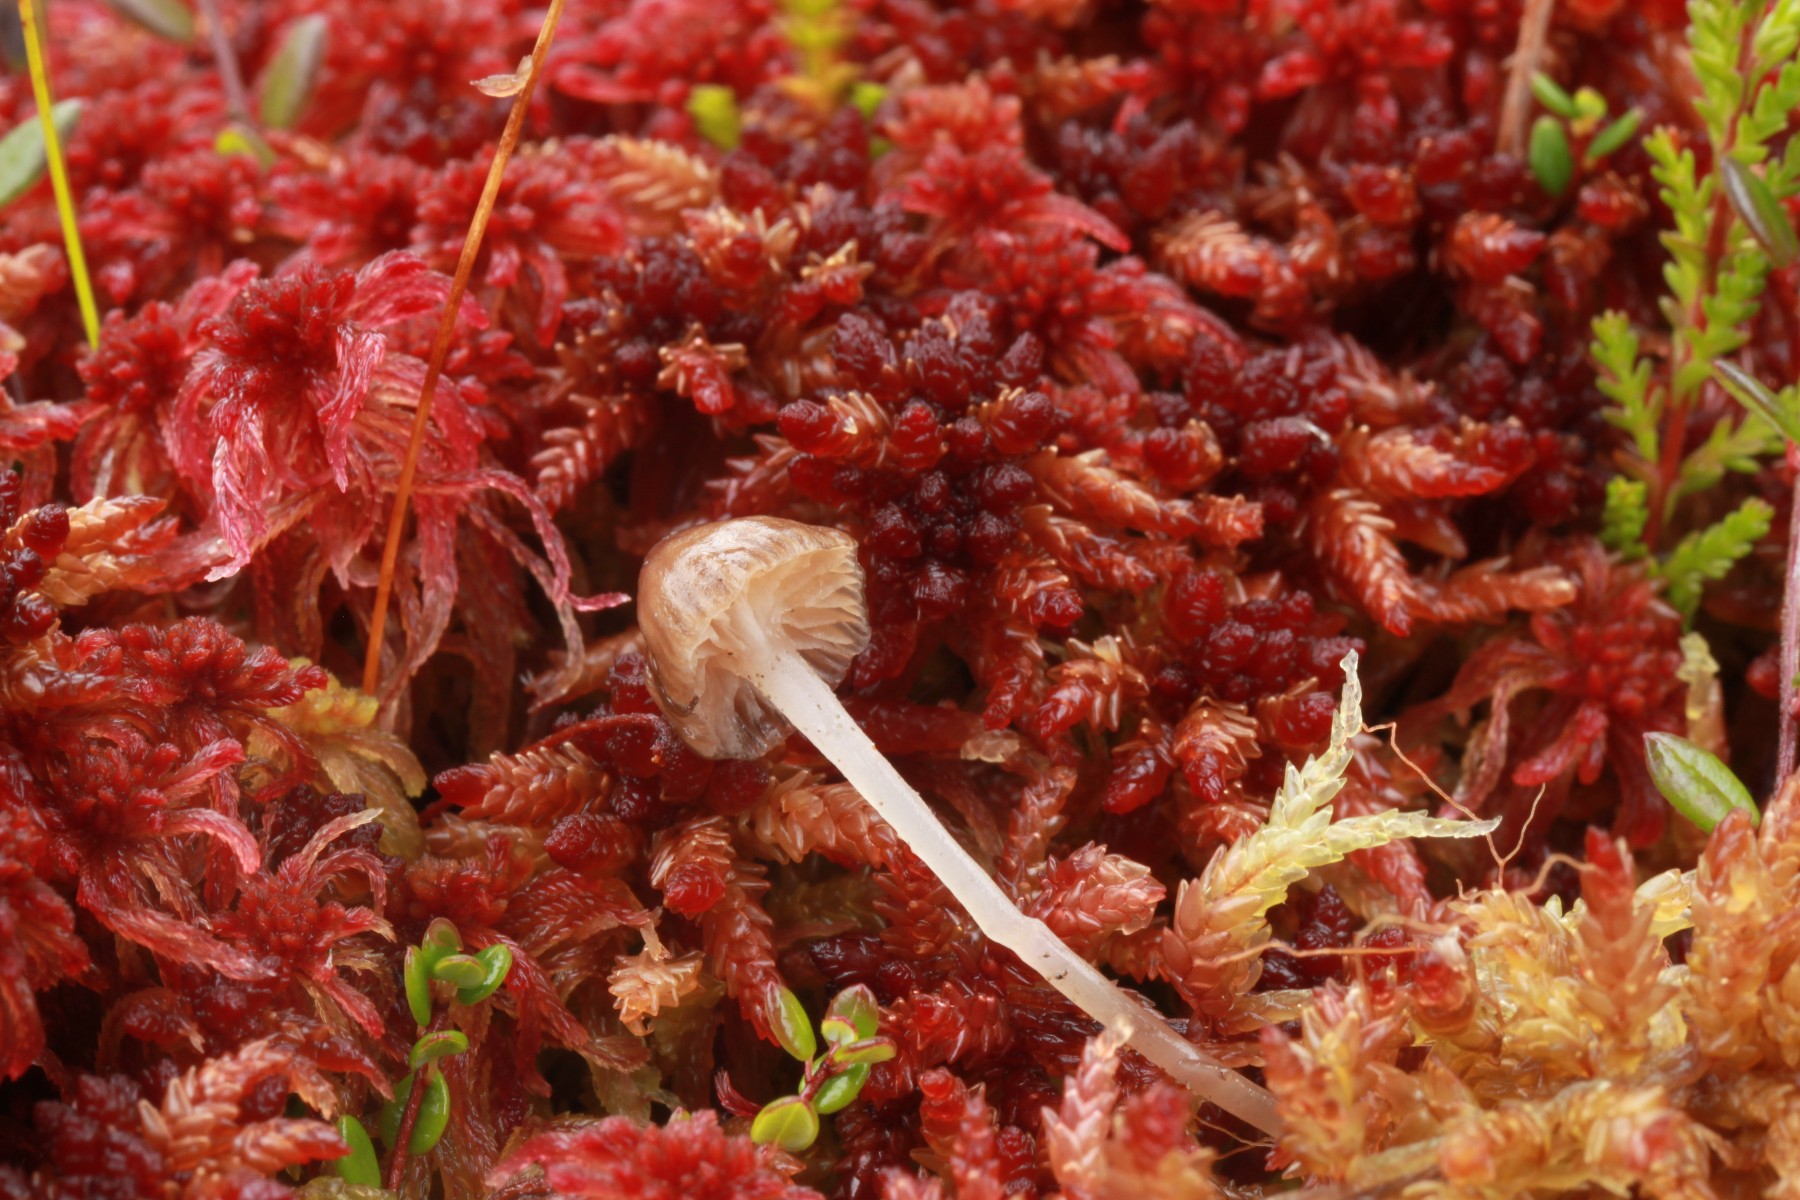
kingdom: Fungi
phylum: Basidiomycota
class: Agaricomycetes
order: Agaricales
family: Mycenaceae
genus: Mycena
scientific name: Mycena concolor
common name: tørvemos-huesvamp
